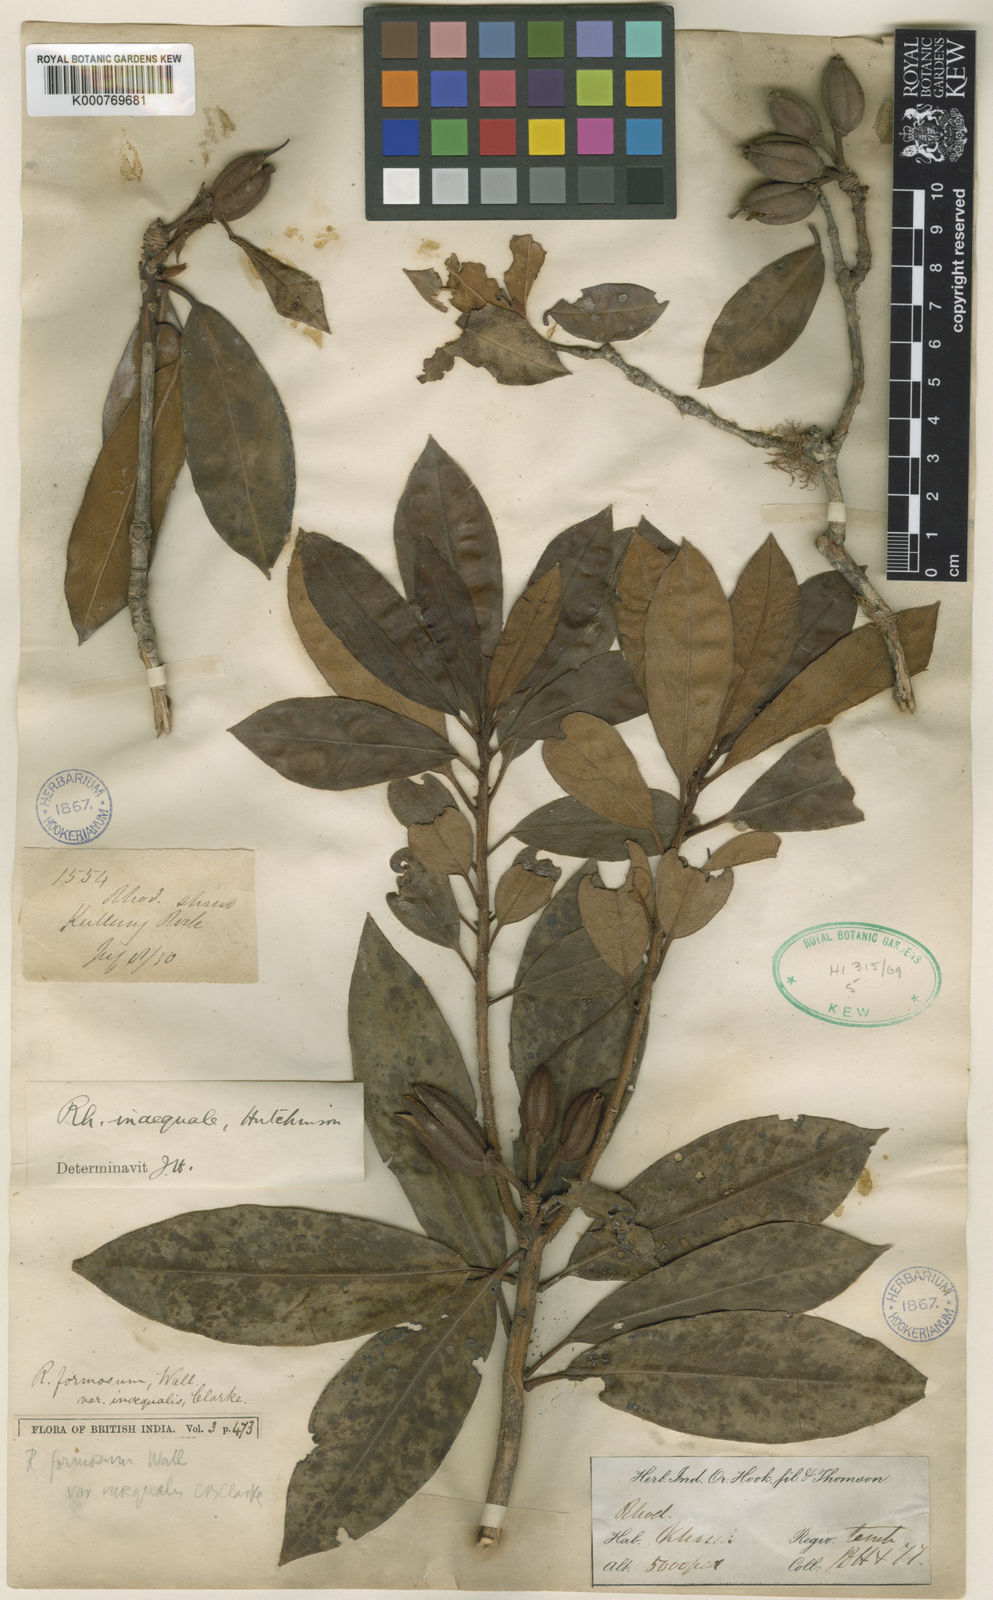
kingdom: Plantae
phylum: Tracheophyta
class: Magnoliopsida
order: Ericales
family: Ericaceae
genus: Rhododendron
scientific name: Rhododendron formosum
